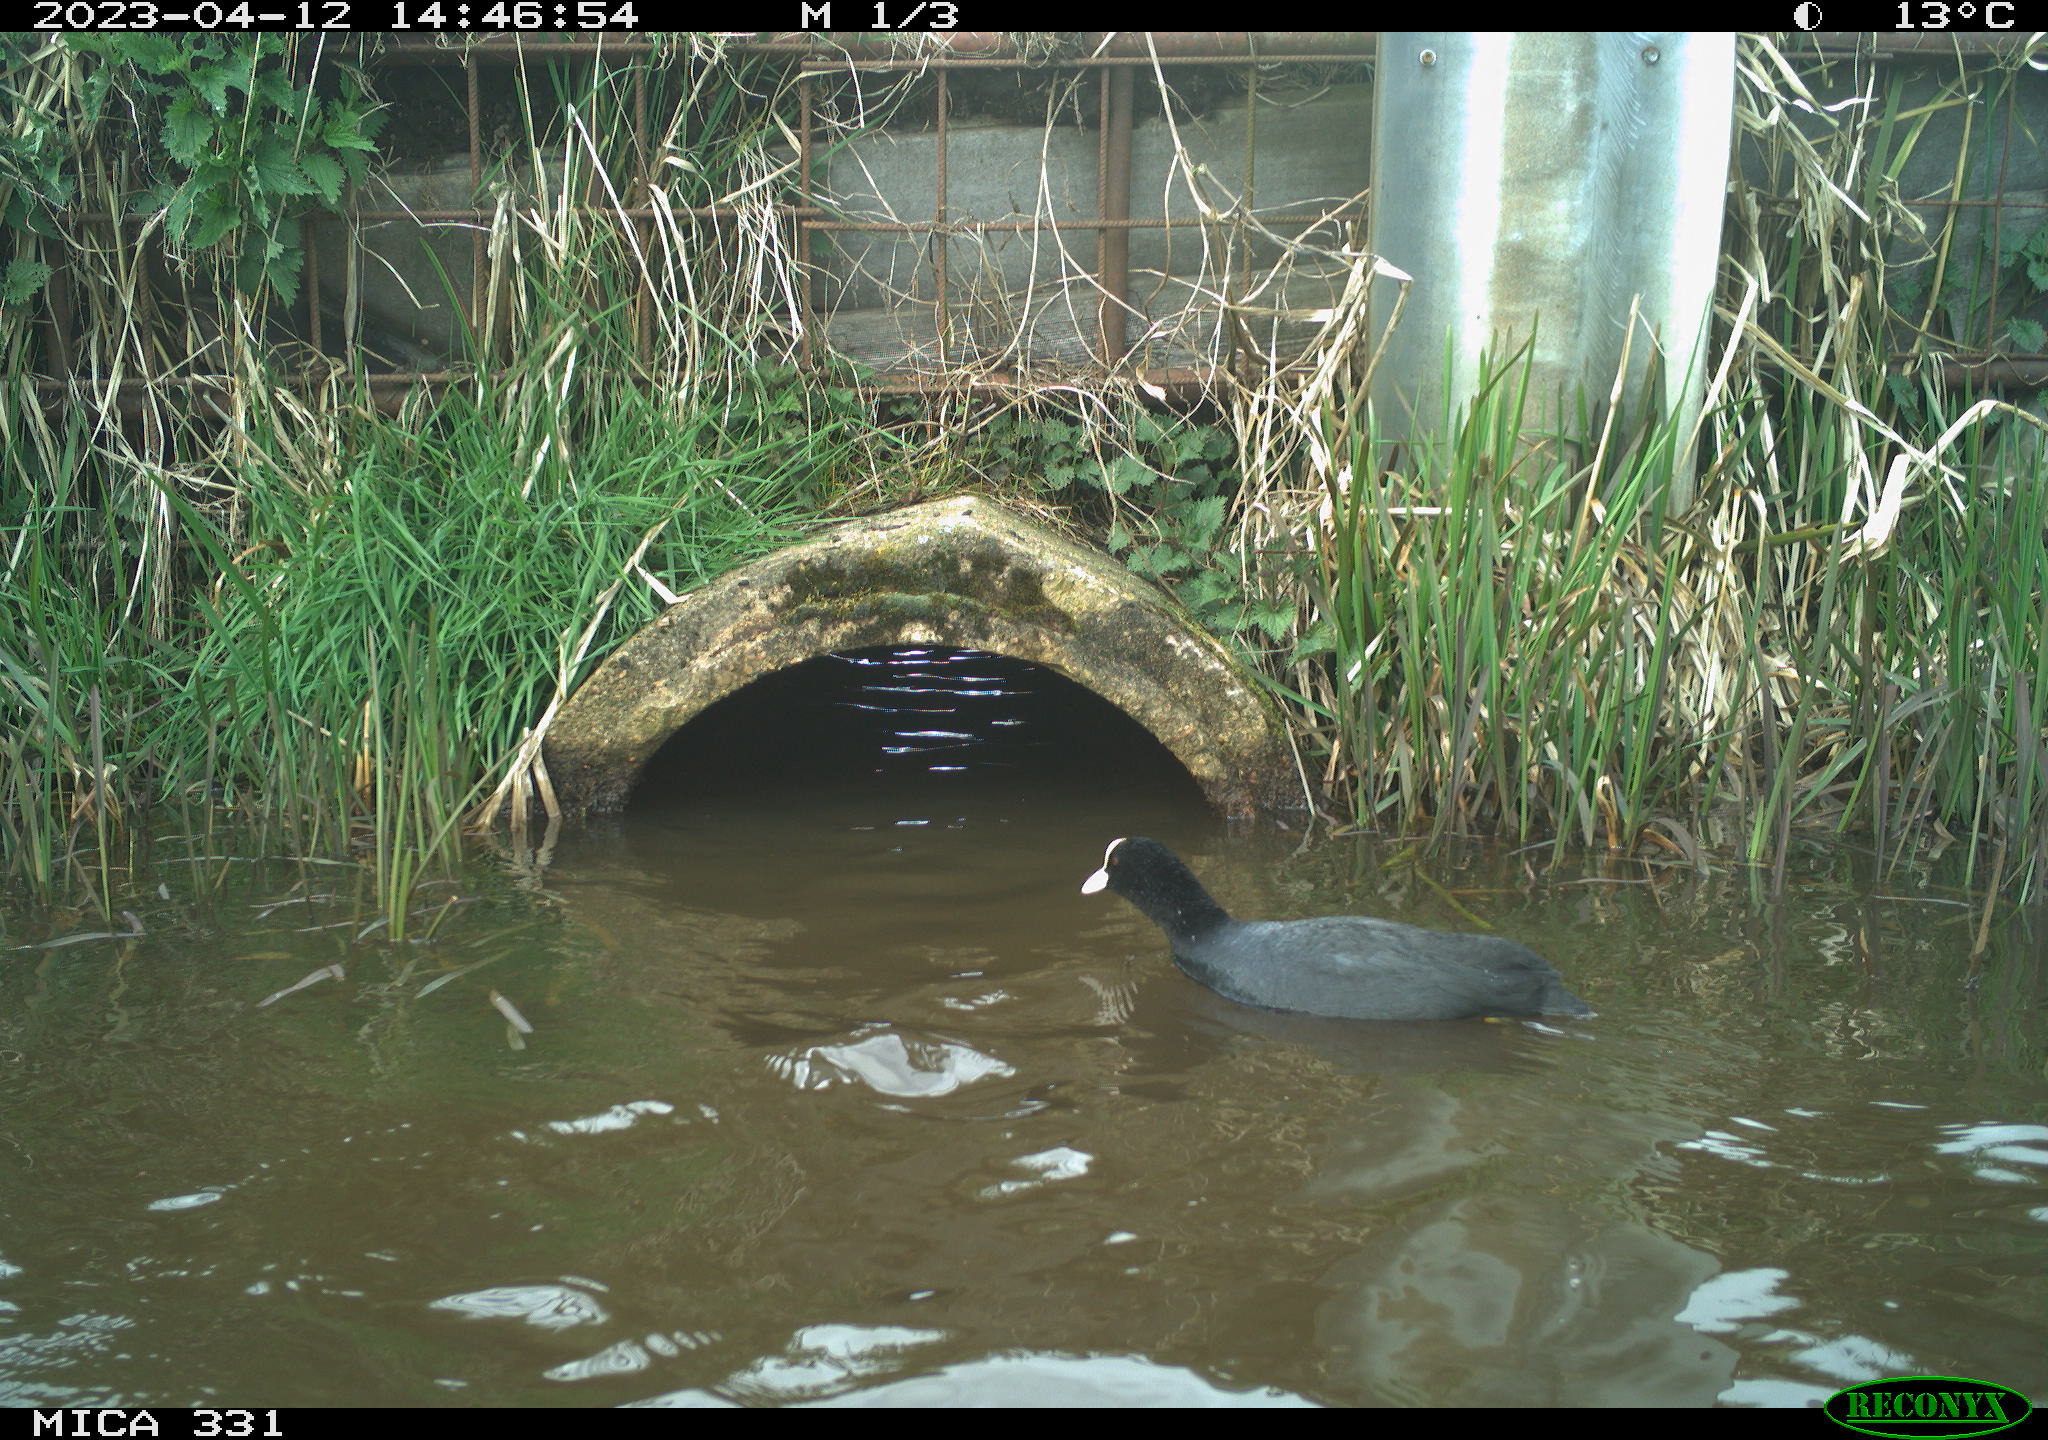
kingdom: Animalia
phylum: Chordata
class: Aves
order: Gruiformes
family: Rallidae
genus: Fulica
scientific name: Fulica atra
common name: Eurasian coot
